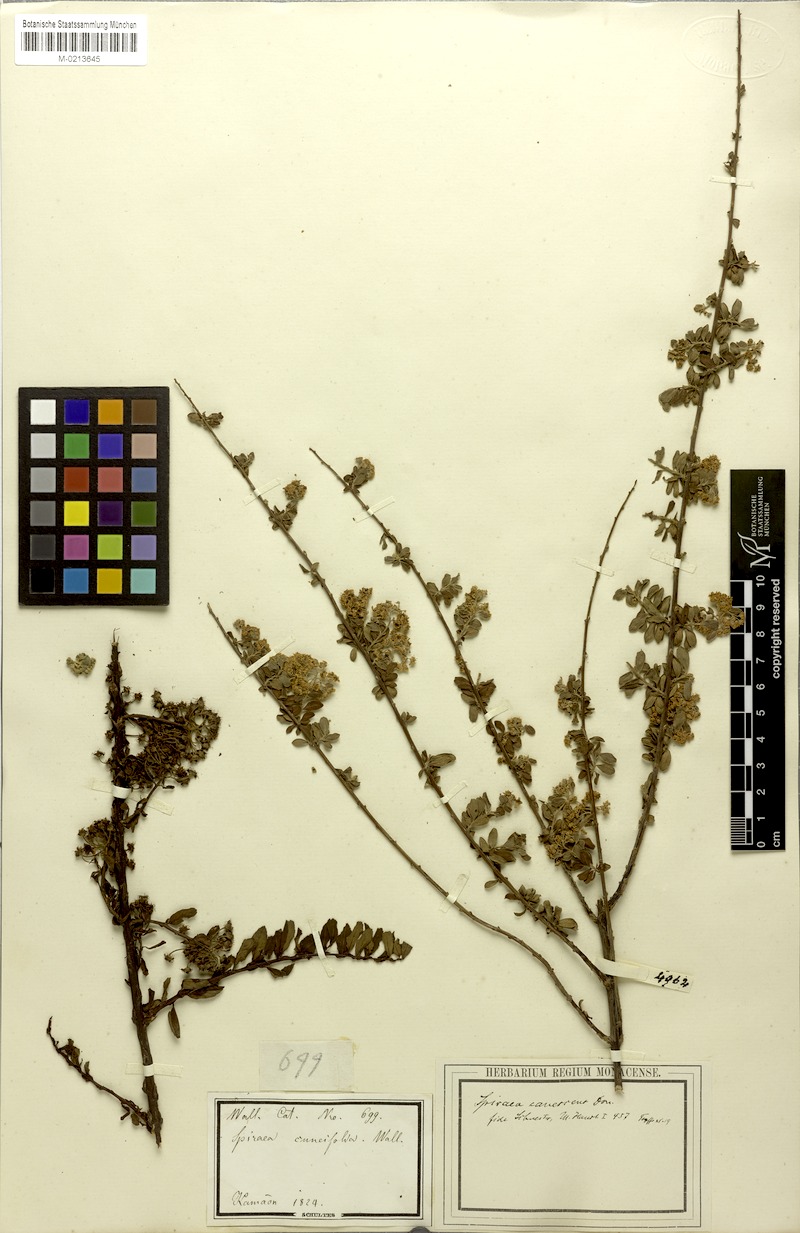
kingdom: Plantae
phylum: Tracheophyta
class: Magnoliopsida
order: Rosales
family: Rosaceae
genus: Spiraea
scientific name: Spiraea canescens
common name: Himalayan spiraea
